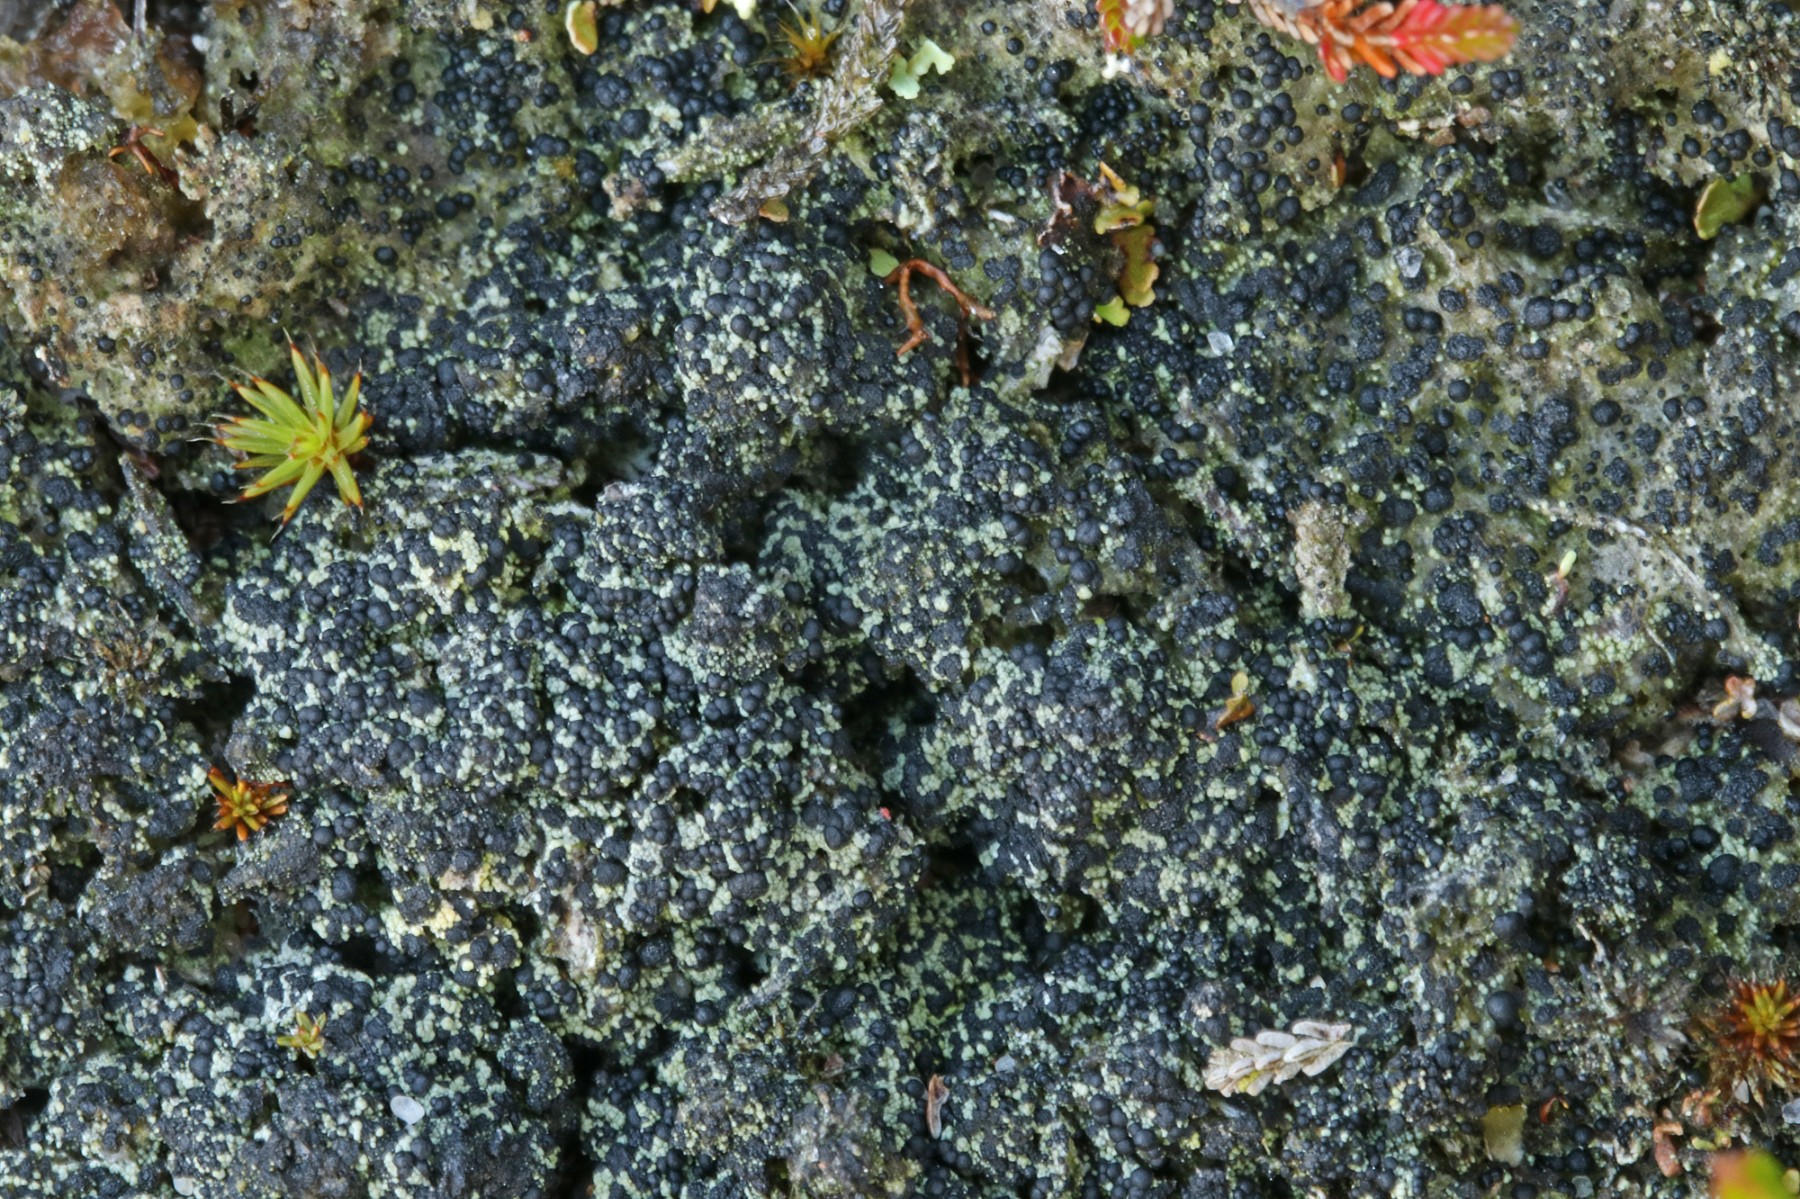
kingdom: Fungi
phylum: Ascomycota
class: Lecanoromycetes
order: Lecanorales
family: Byssolomataceae
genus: Micarea
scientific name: Micarea lignaria
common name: tørve-knaplav
